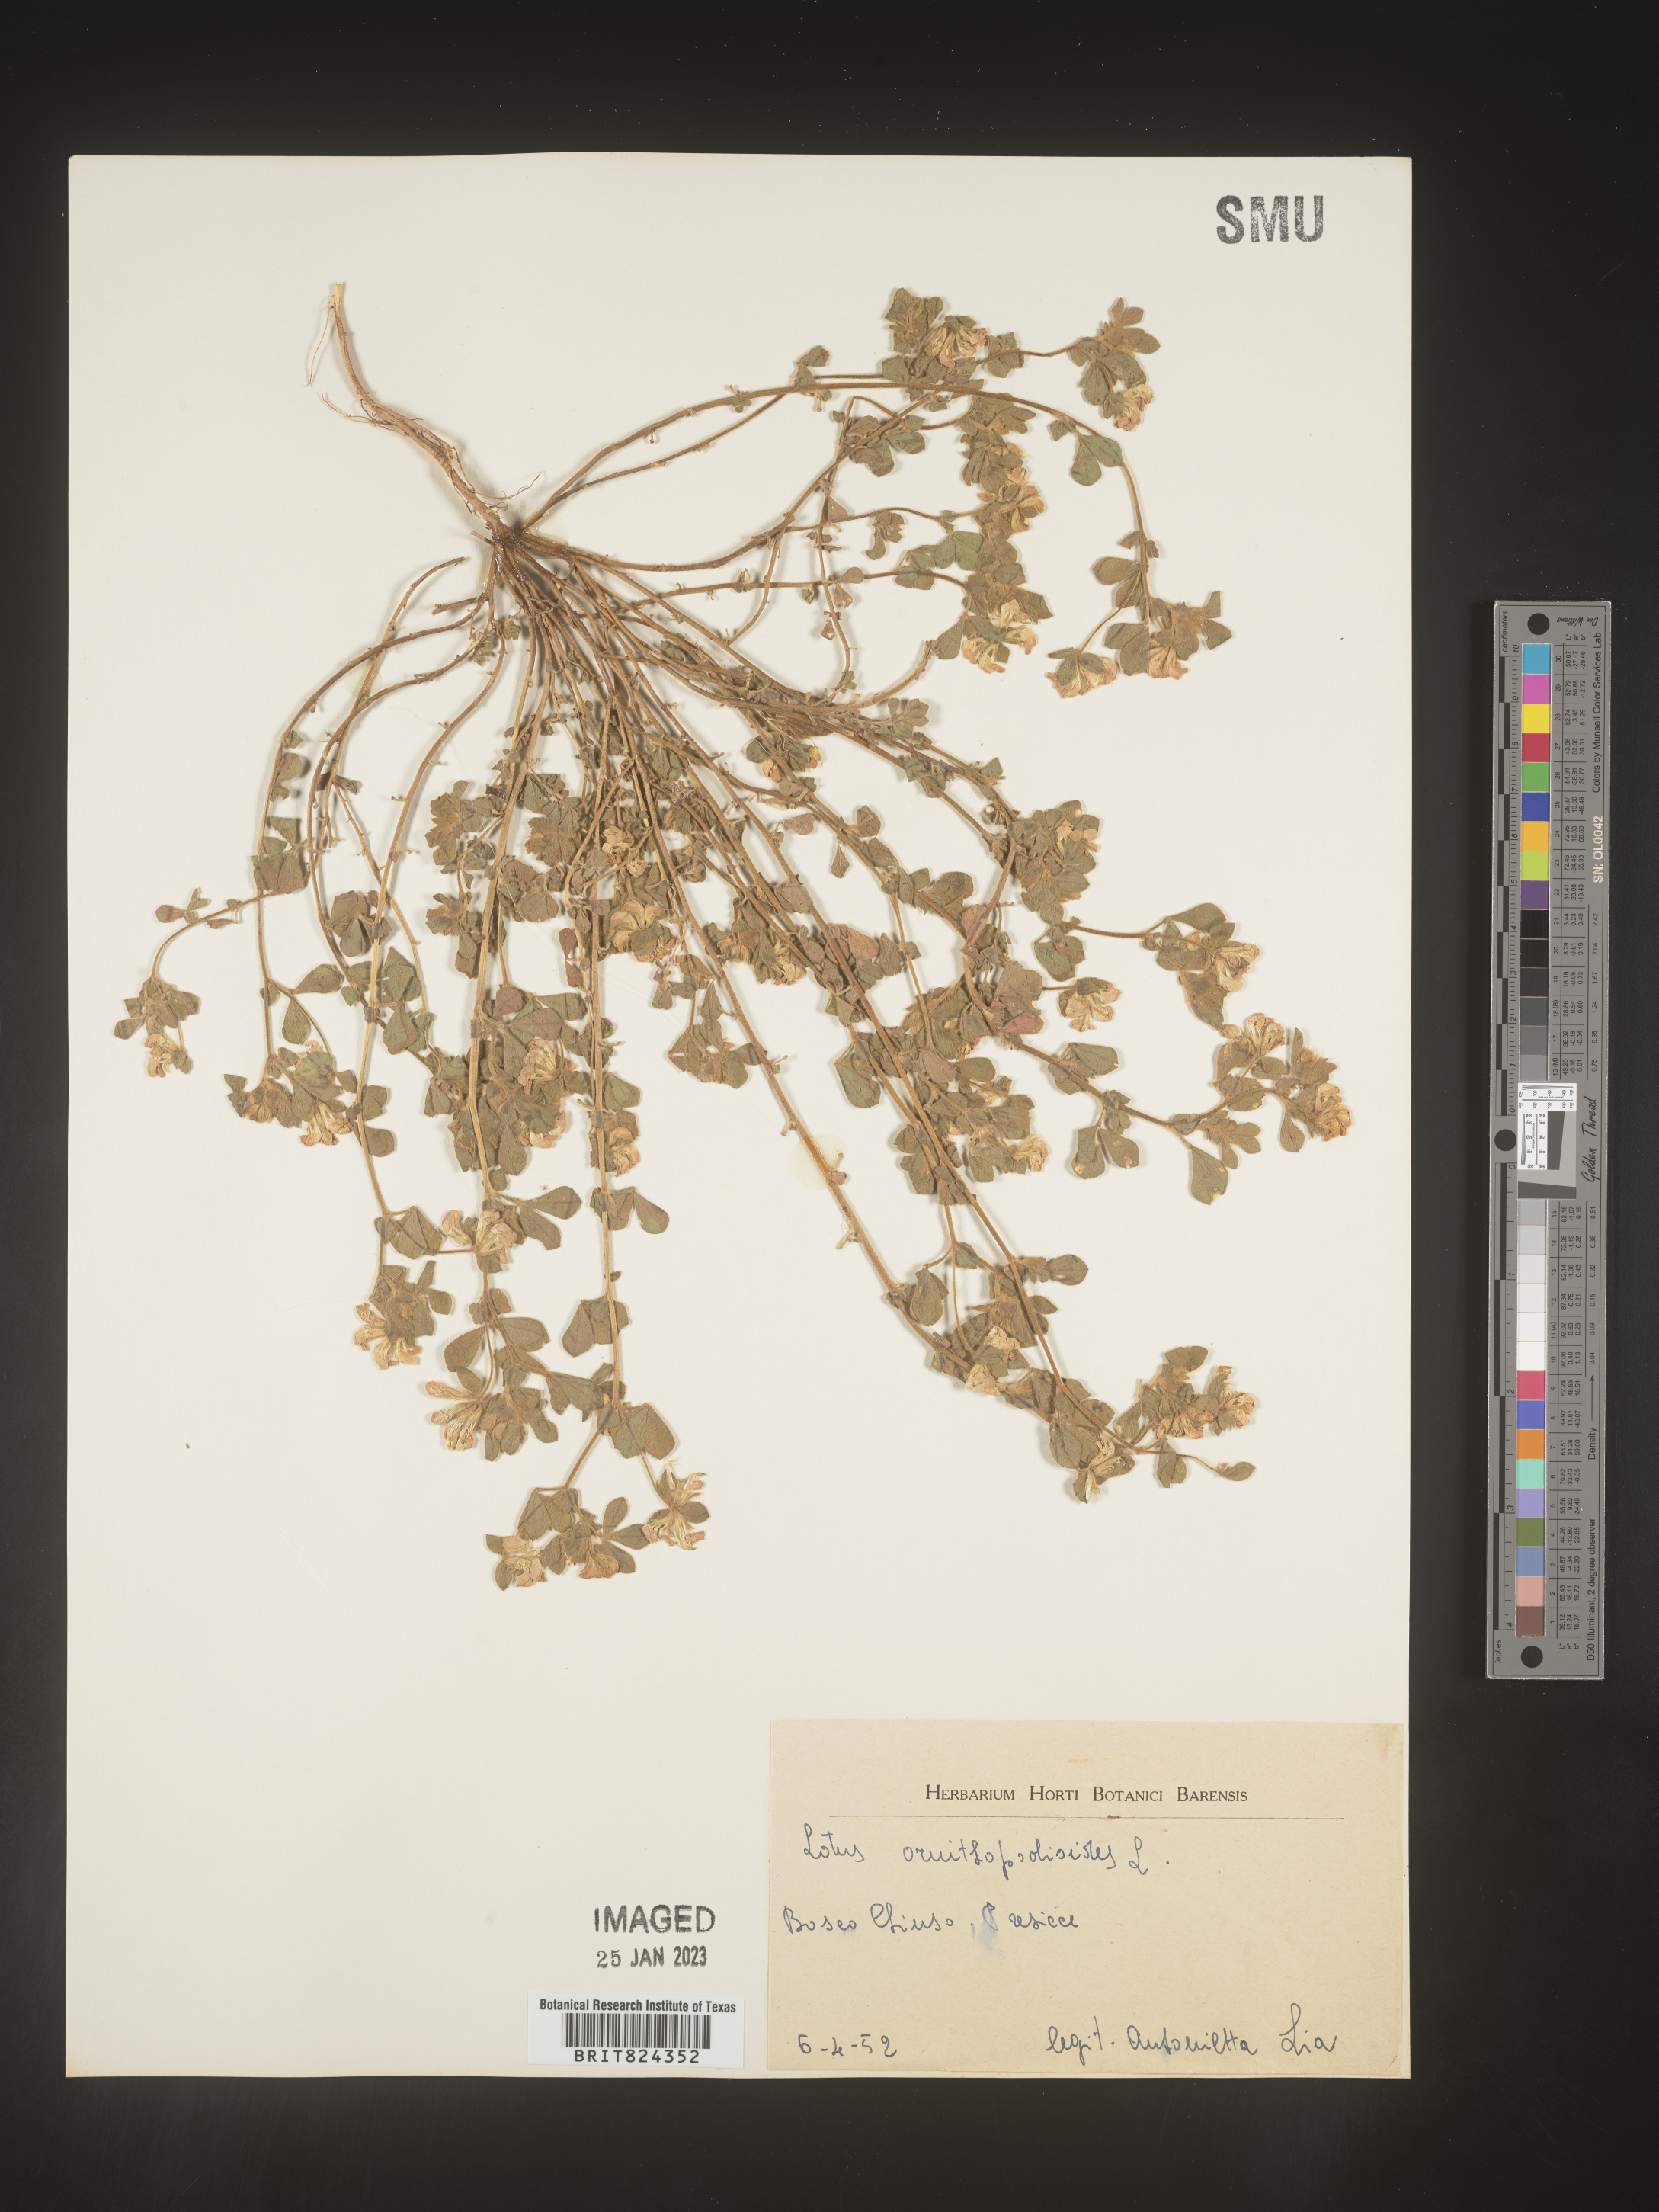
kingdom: Plantae
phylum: Tracheophyta
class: Magnoliopsida
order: Fabales
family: Fabaceae
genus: Lotus
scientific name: Lotus
